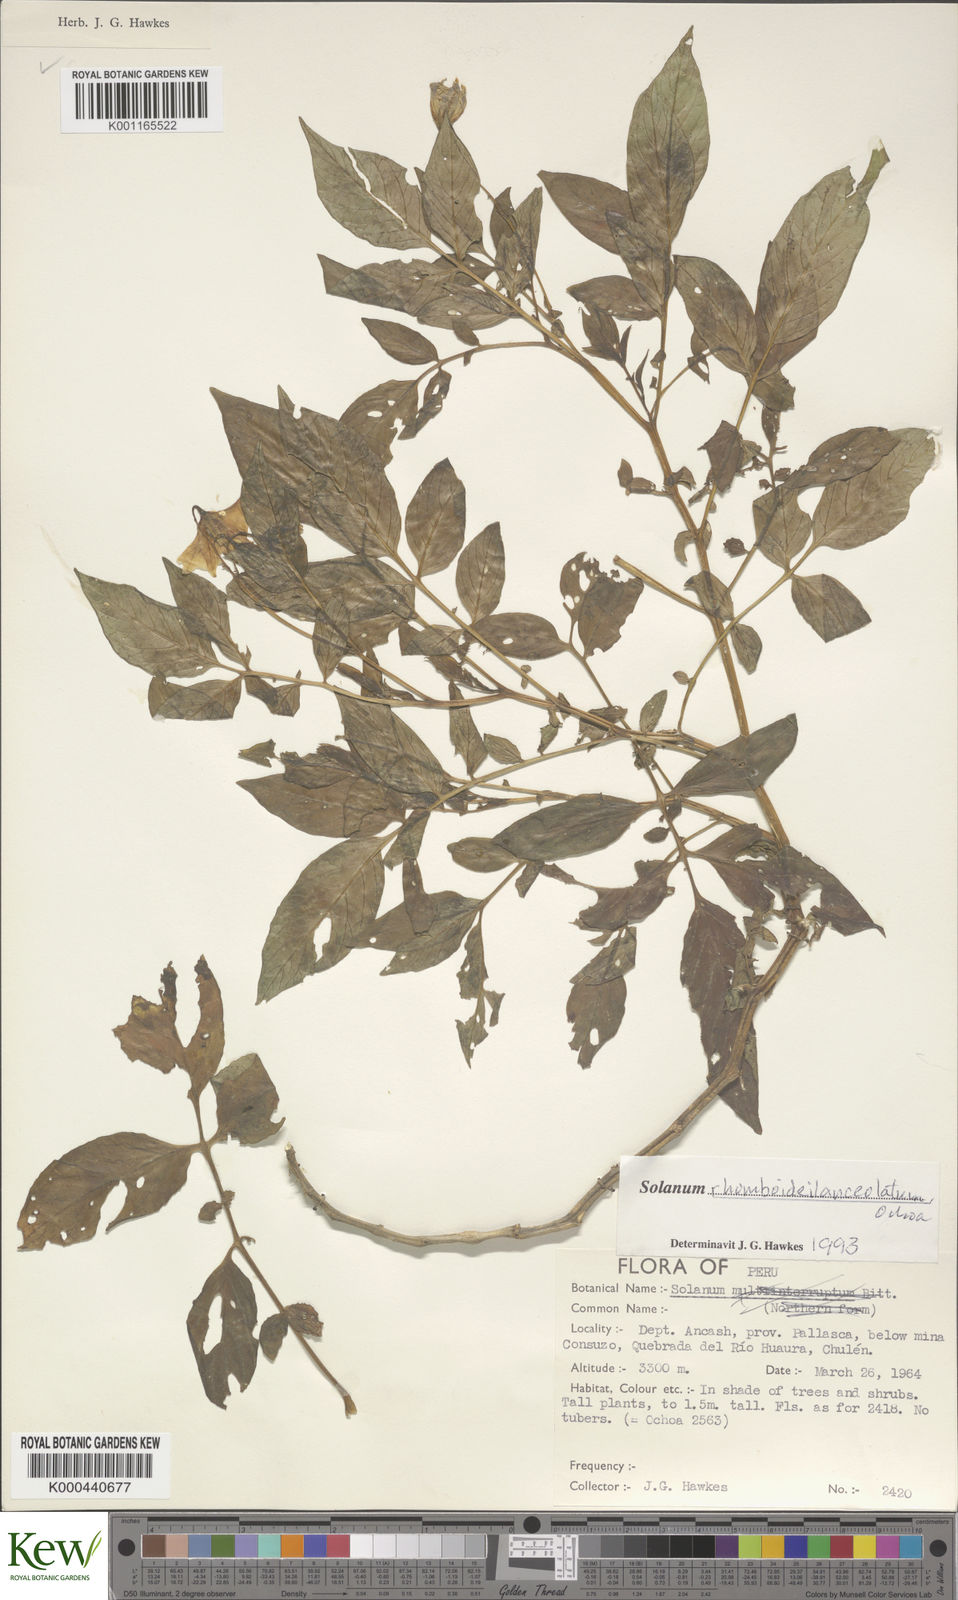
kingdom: Plantae
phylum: Tracheophyta
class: Magnoliopsida
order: Solanales
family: Solanaceae
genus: Solanum
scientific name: Solanum rhomboideilanceolatum
